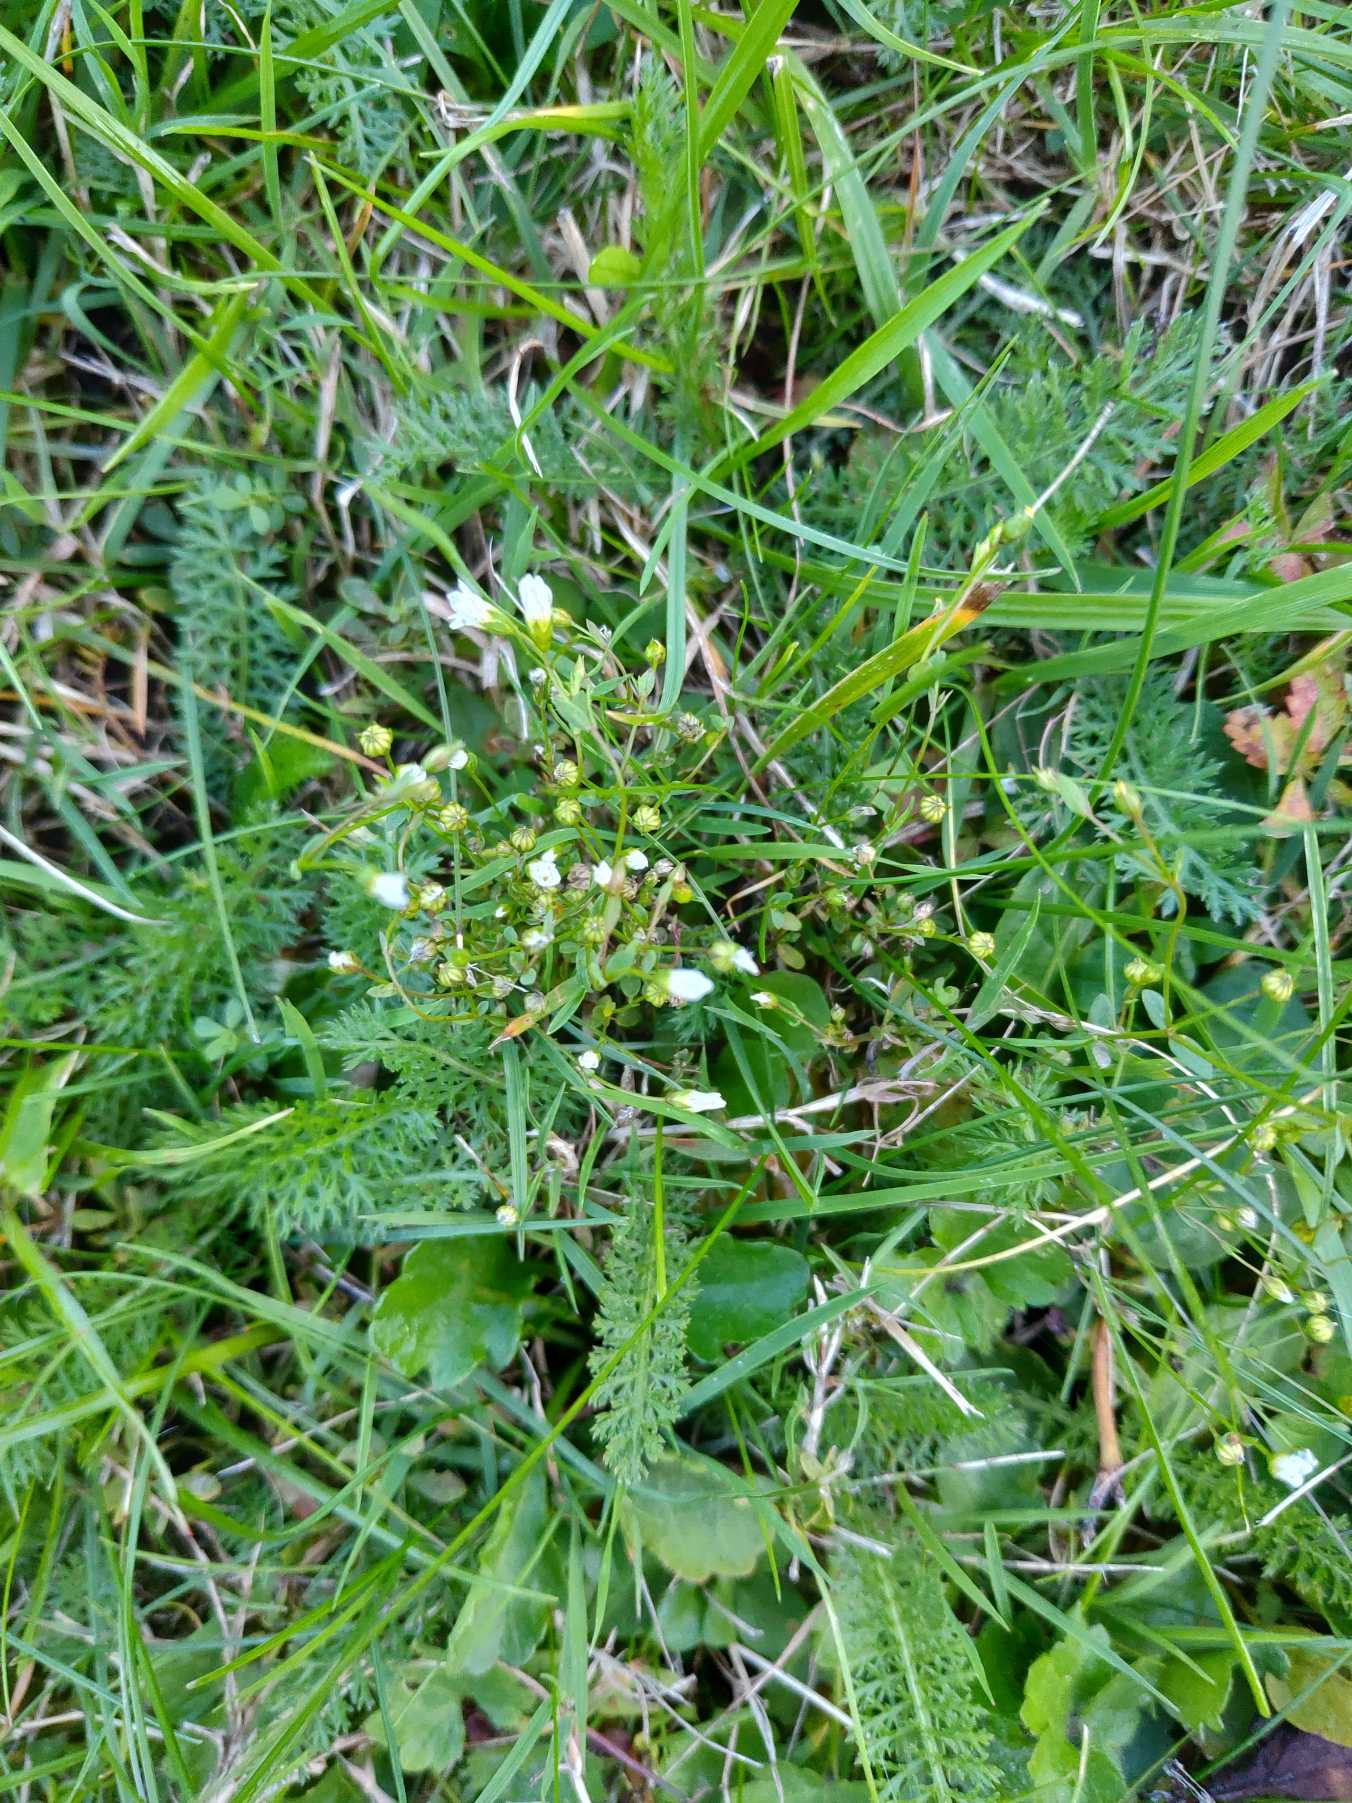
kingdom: Plantae
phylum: Tracheophyta
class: Magnoliopsida
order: Malpighiales
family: Linaceae
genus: Linum
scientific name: Linum catharticum
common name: Vild hør
